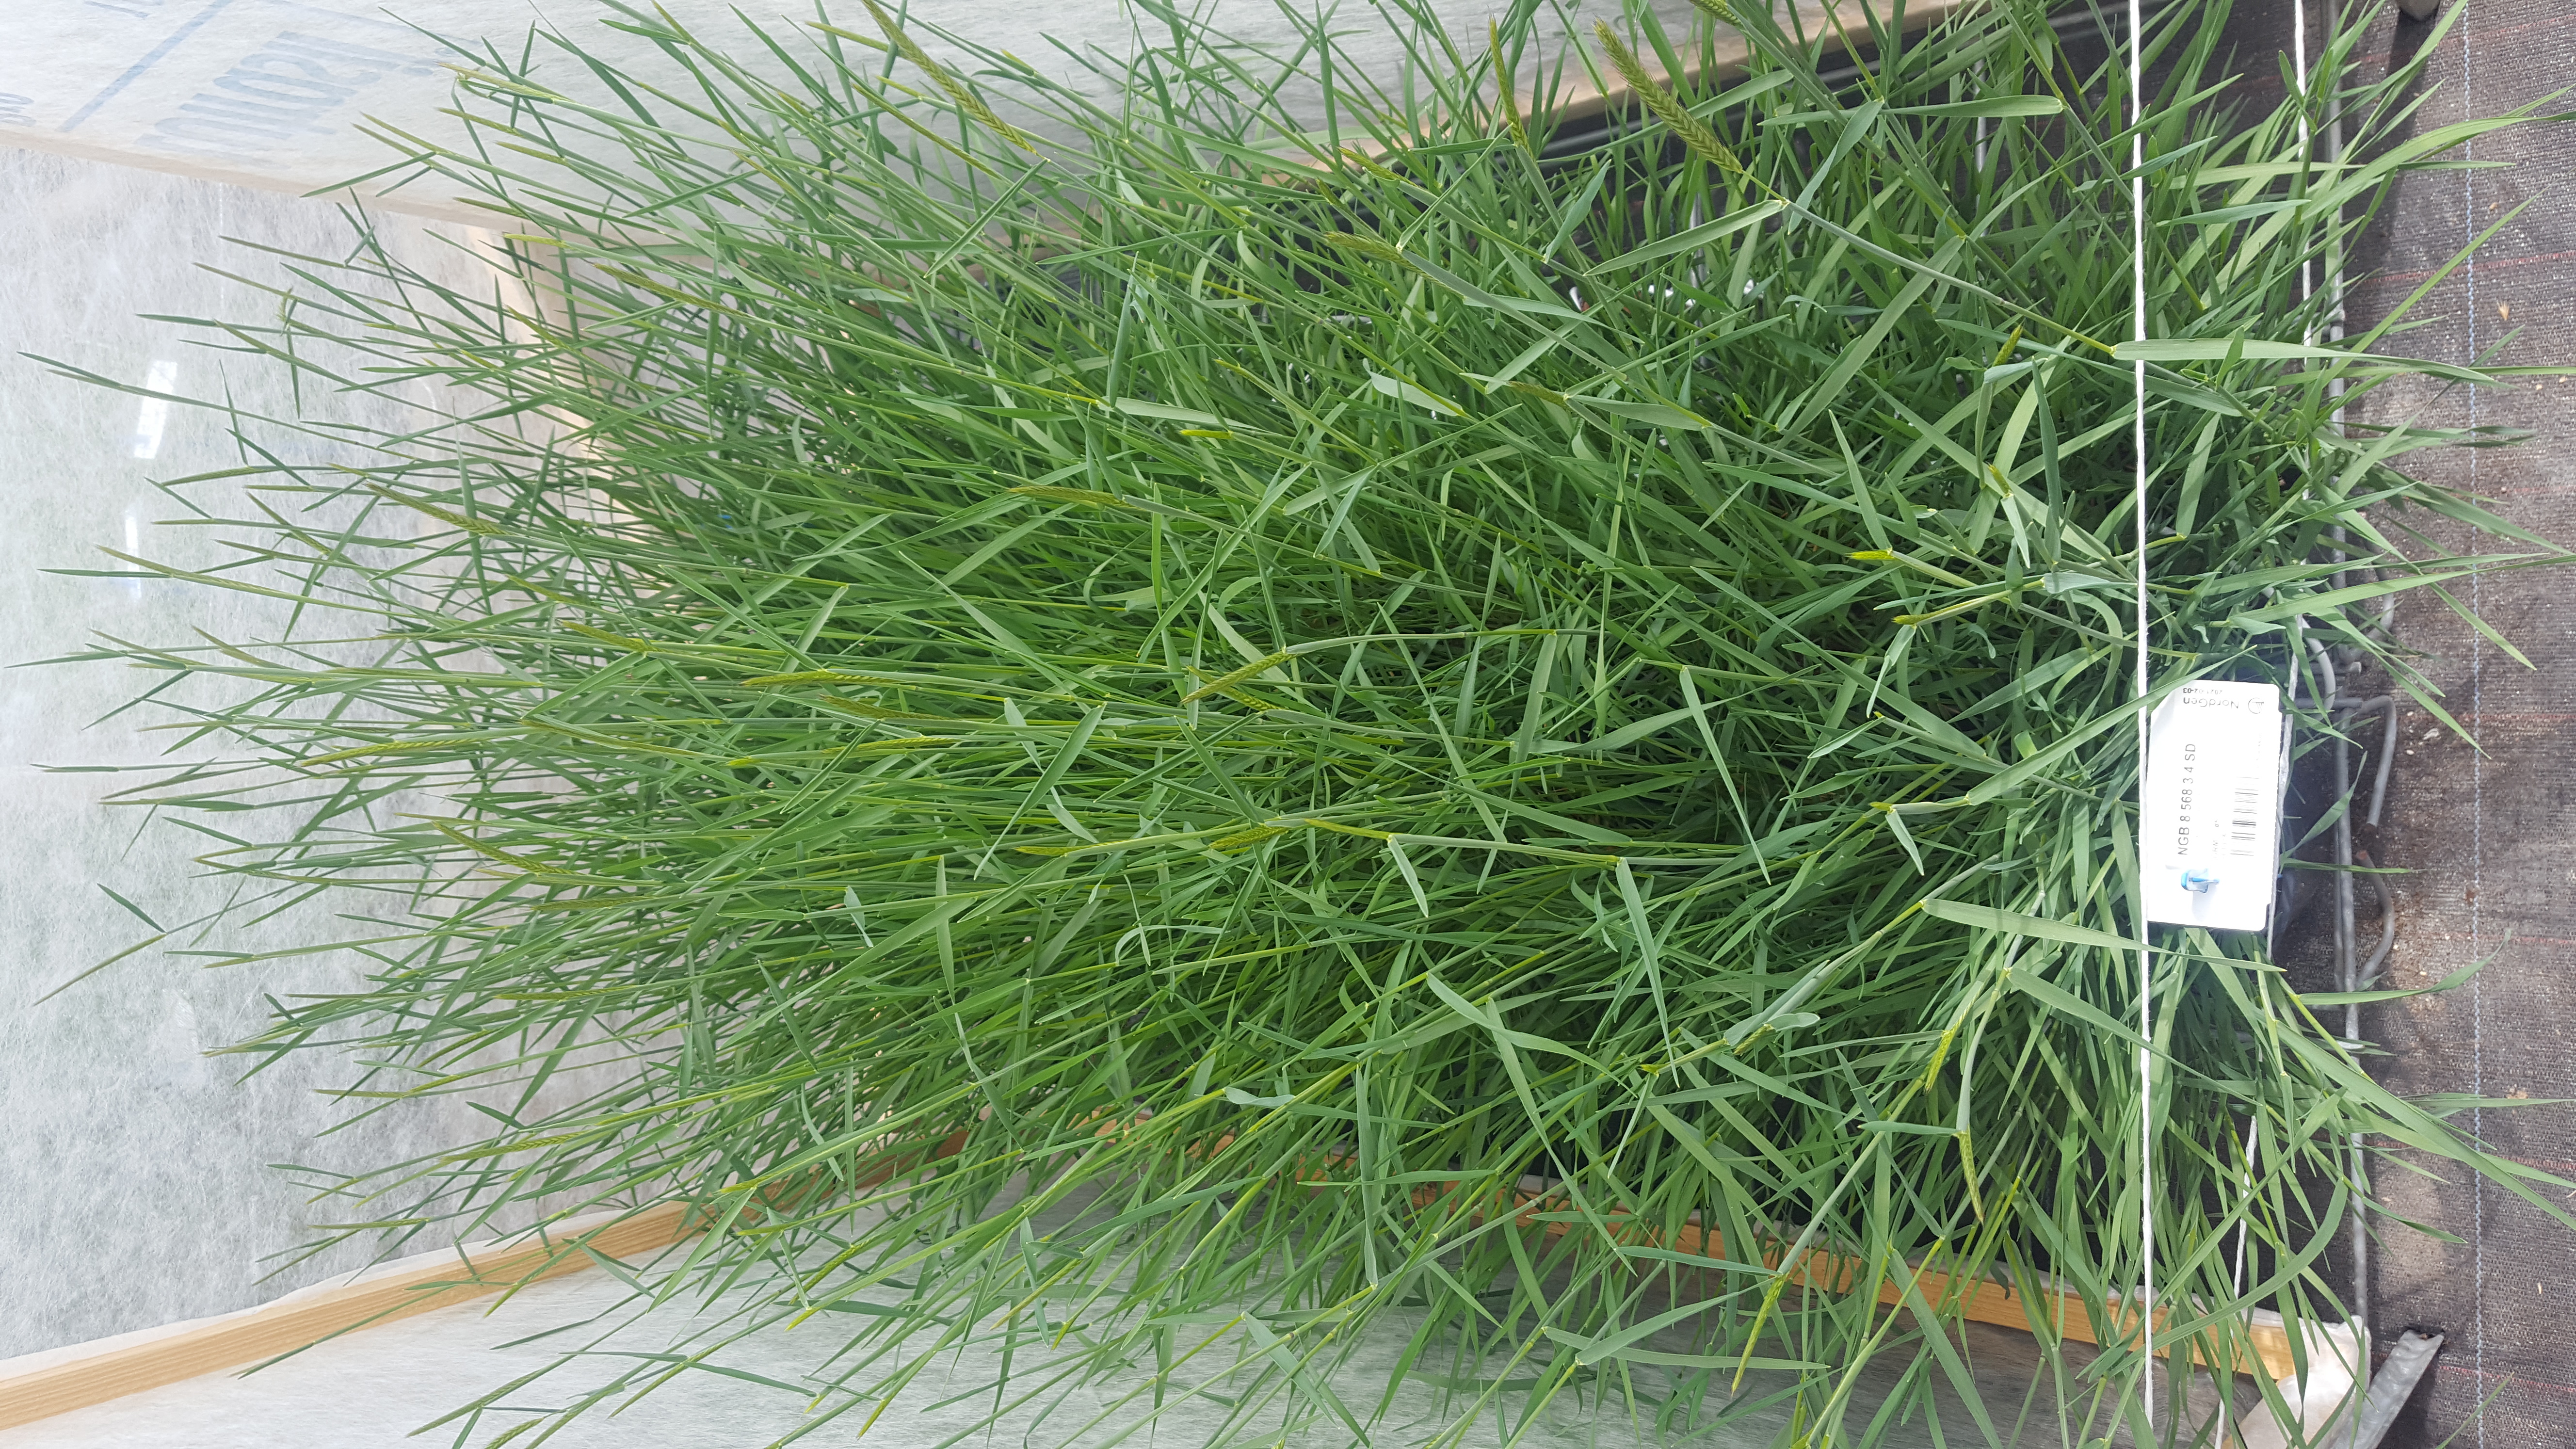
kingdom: Plantae
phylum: Tracheophyta
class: Liliopsida
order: Poales
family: Poaceae
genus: Hordeum
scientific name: Hordeum parodii
